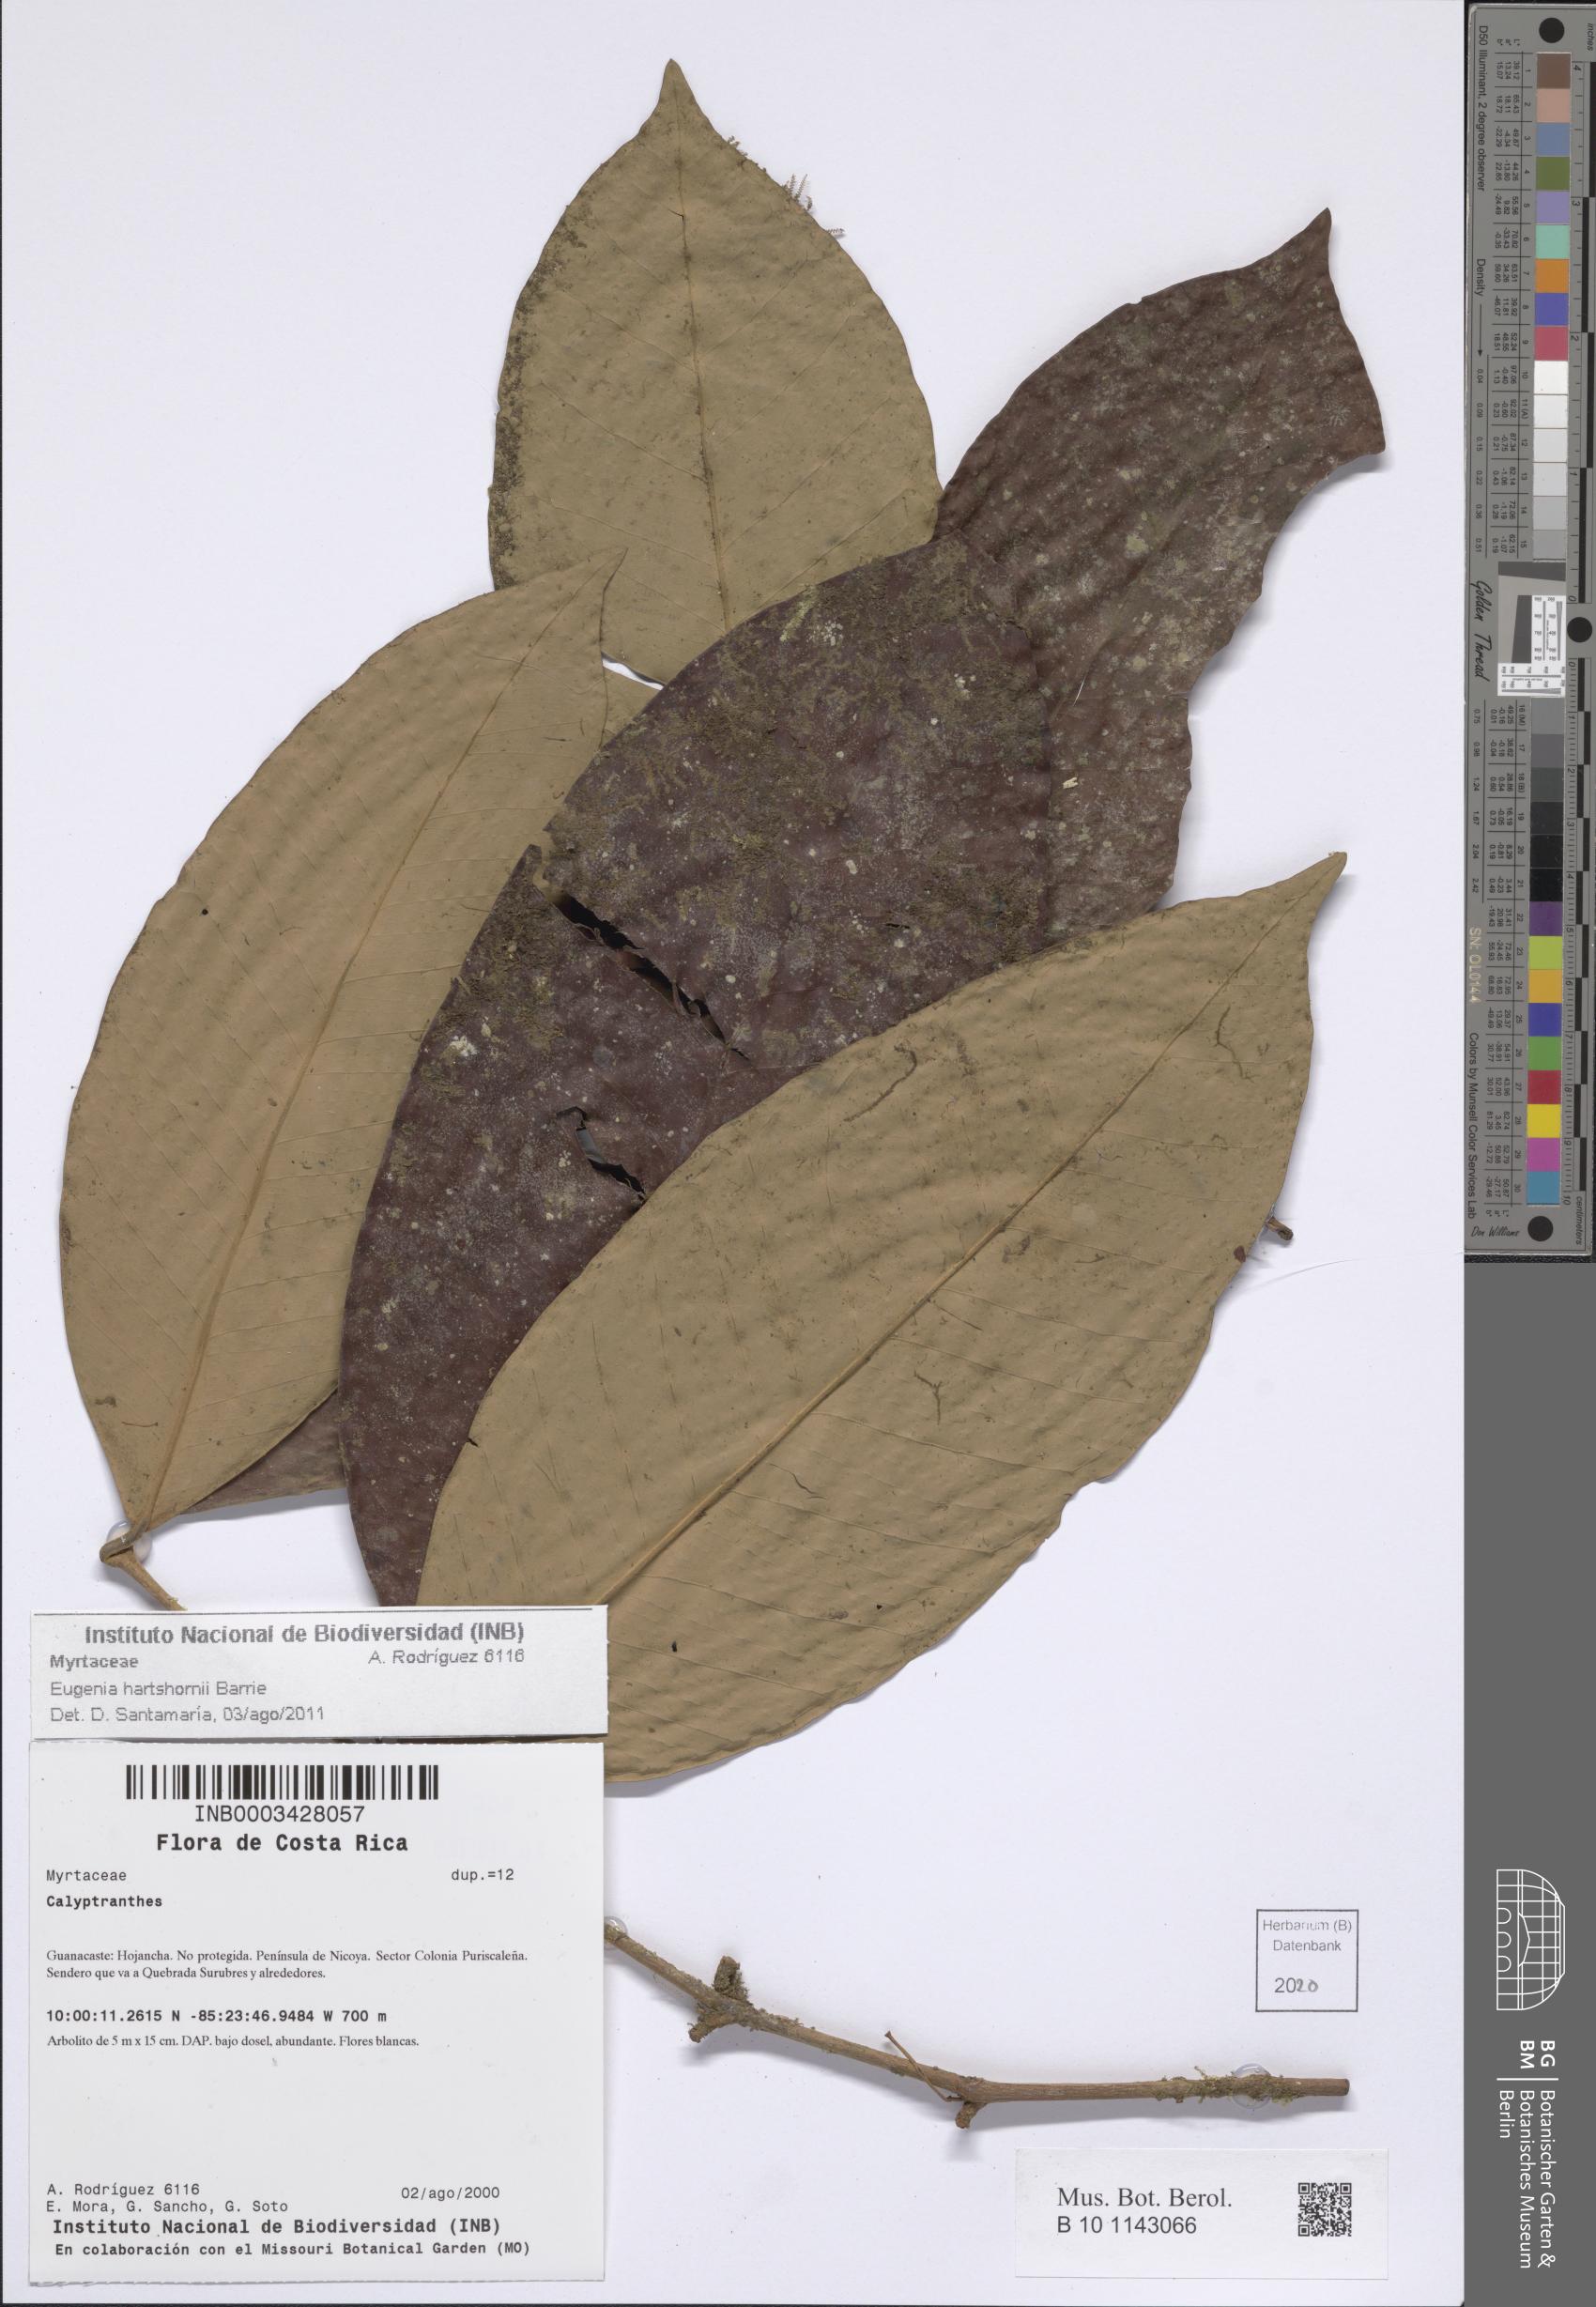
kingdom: Plantae
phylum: Tracheophyta
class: Magnoliopsida
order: Myrtales
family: Myrtaceae
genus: Calyptranthes
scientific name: Calyptranthes
